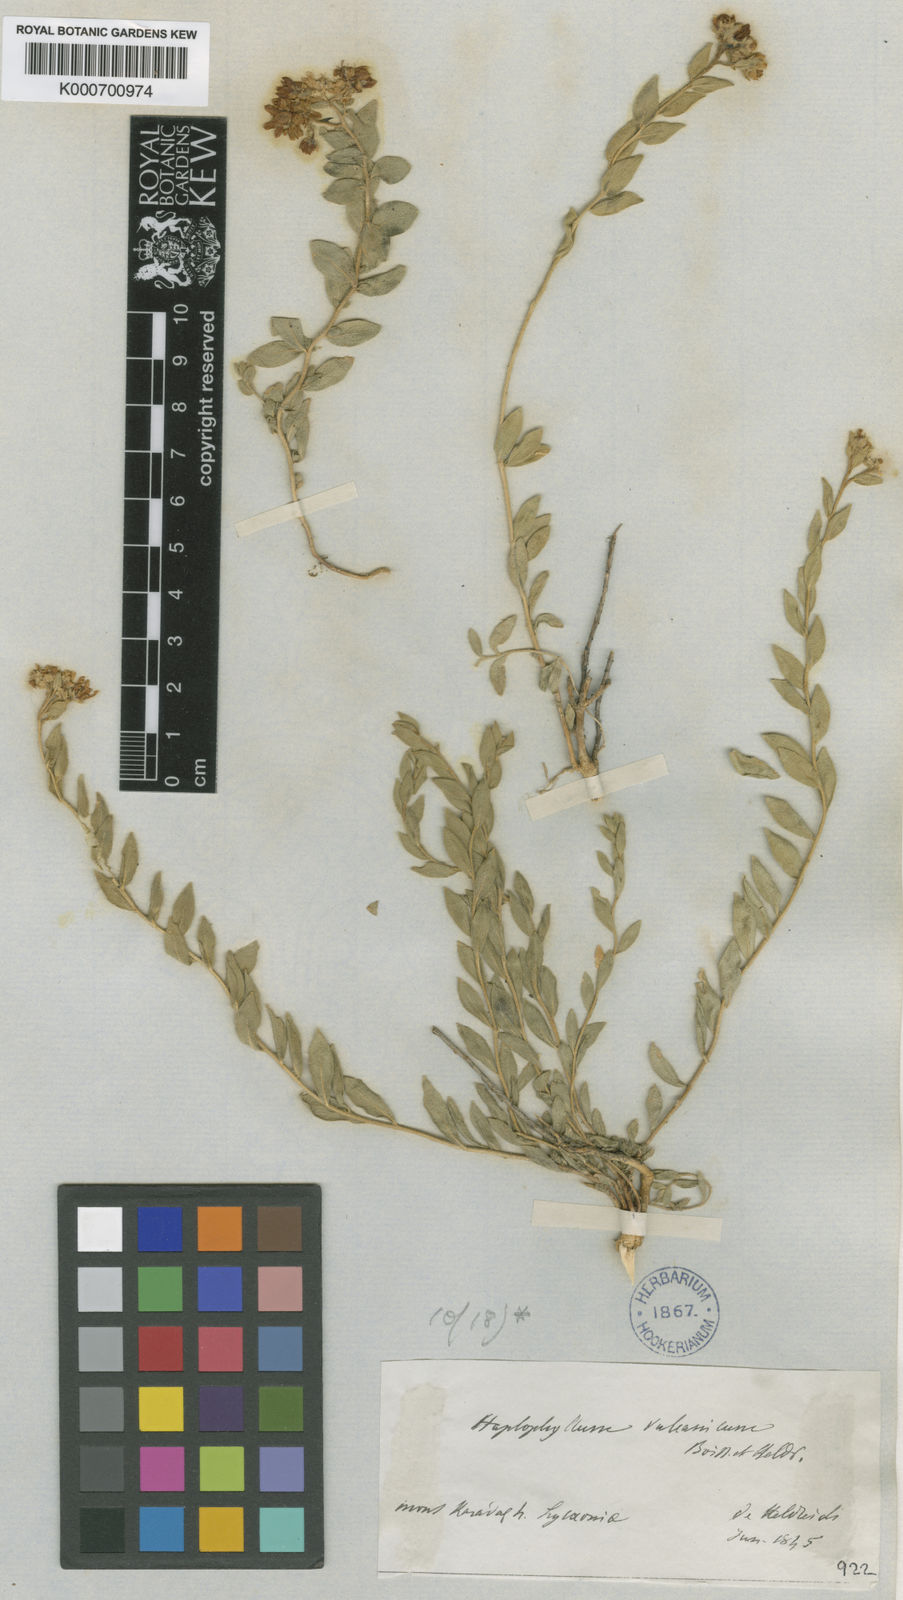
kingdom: Plantae
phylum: Tracheophyta
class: Magnoliopsida
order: Sapindales
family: Rutaceae
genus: Haplophyllum
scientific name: Haplophyllum vulcanicum
